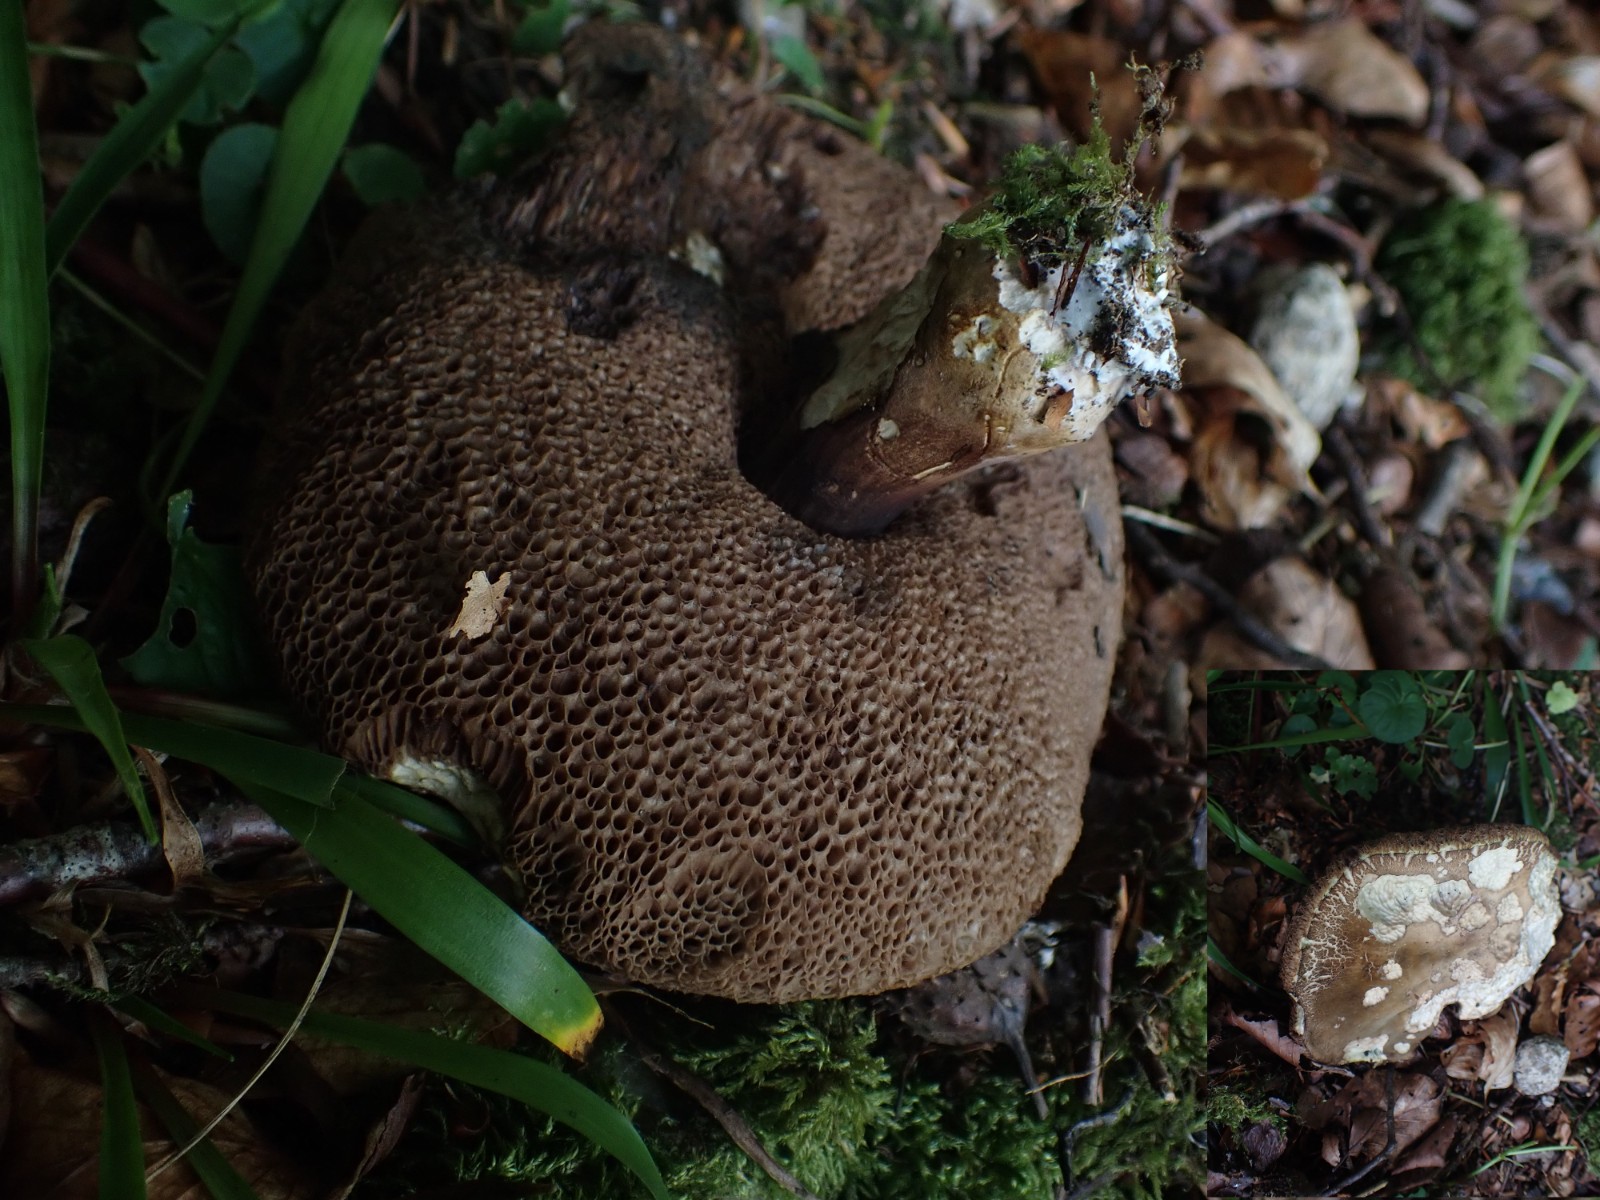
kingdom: Fungi
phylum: Basidiomycota
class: Agaricomycetes
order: Boletales
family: Boletaceae
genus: Porphyrellus
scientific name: Porphyrellus porphyrosporus
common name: sodrørhat
